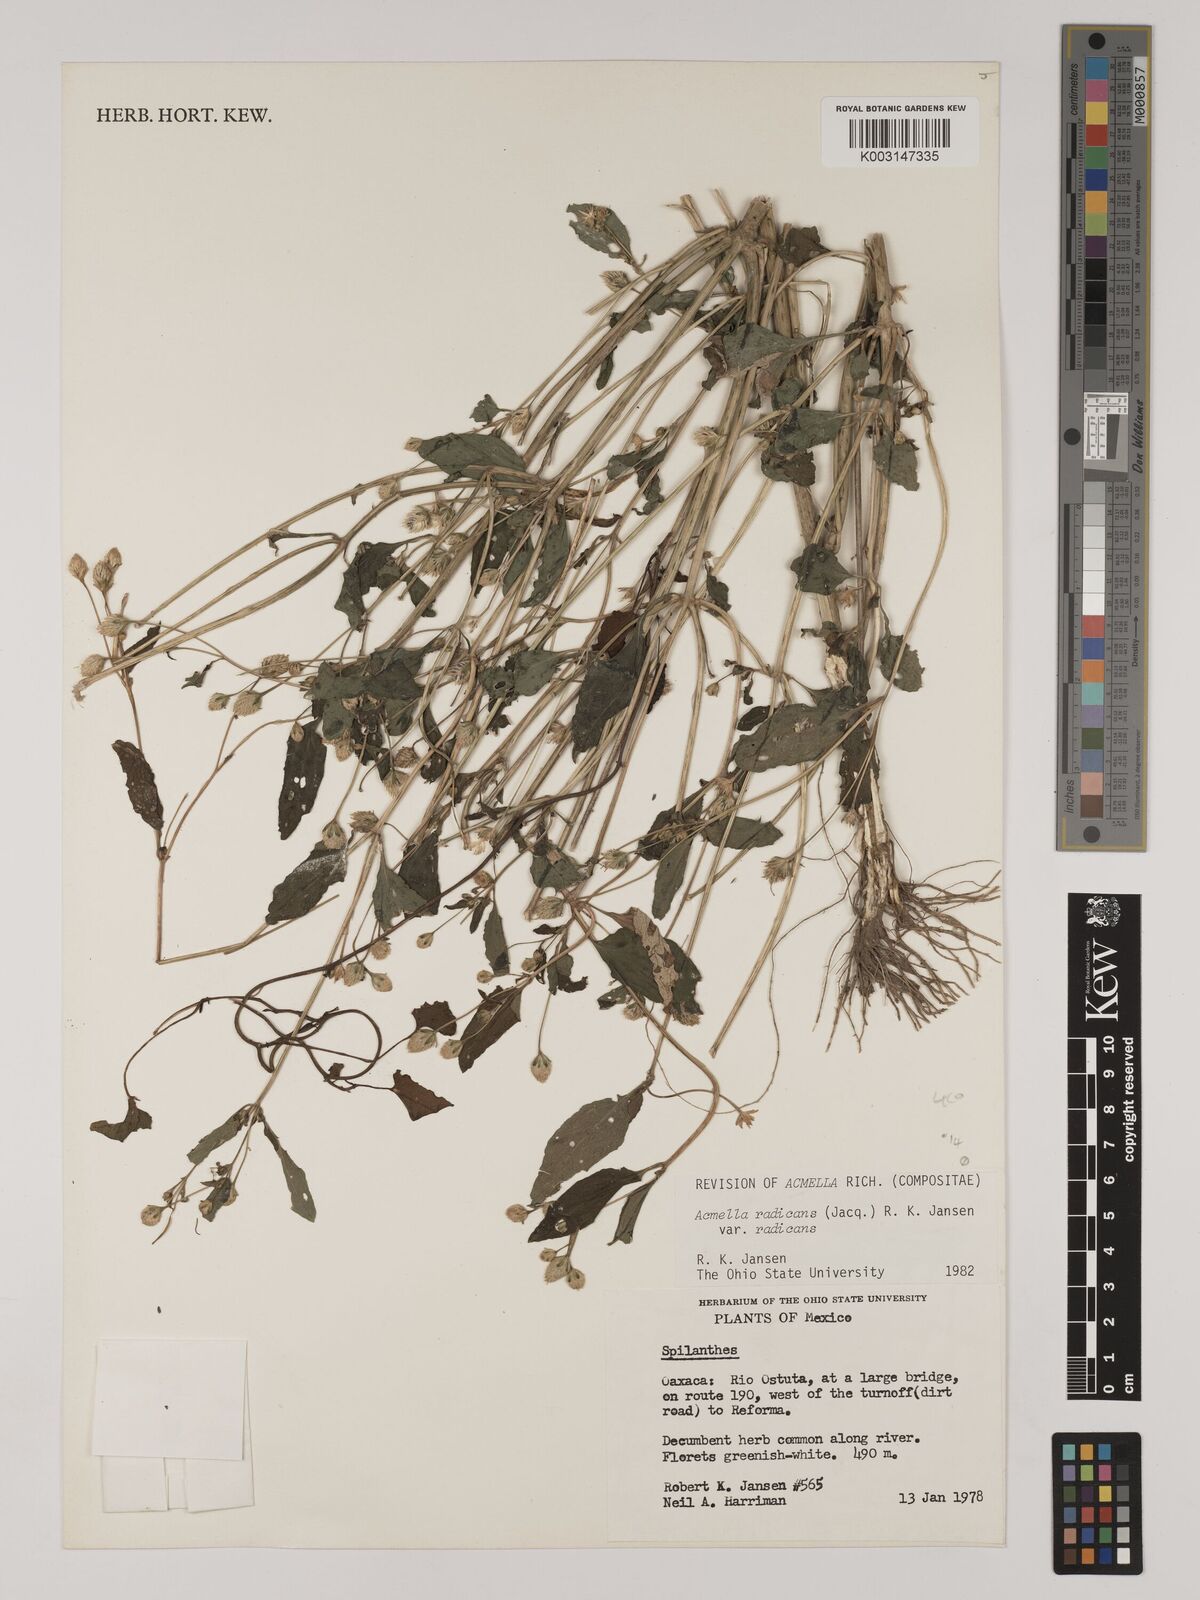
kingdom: Plantae
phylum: Tracheophyta
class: Magnoliopsida
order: Asterales
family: Asteraceae
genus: Acmella
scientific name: Acmella radicans
